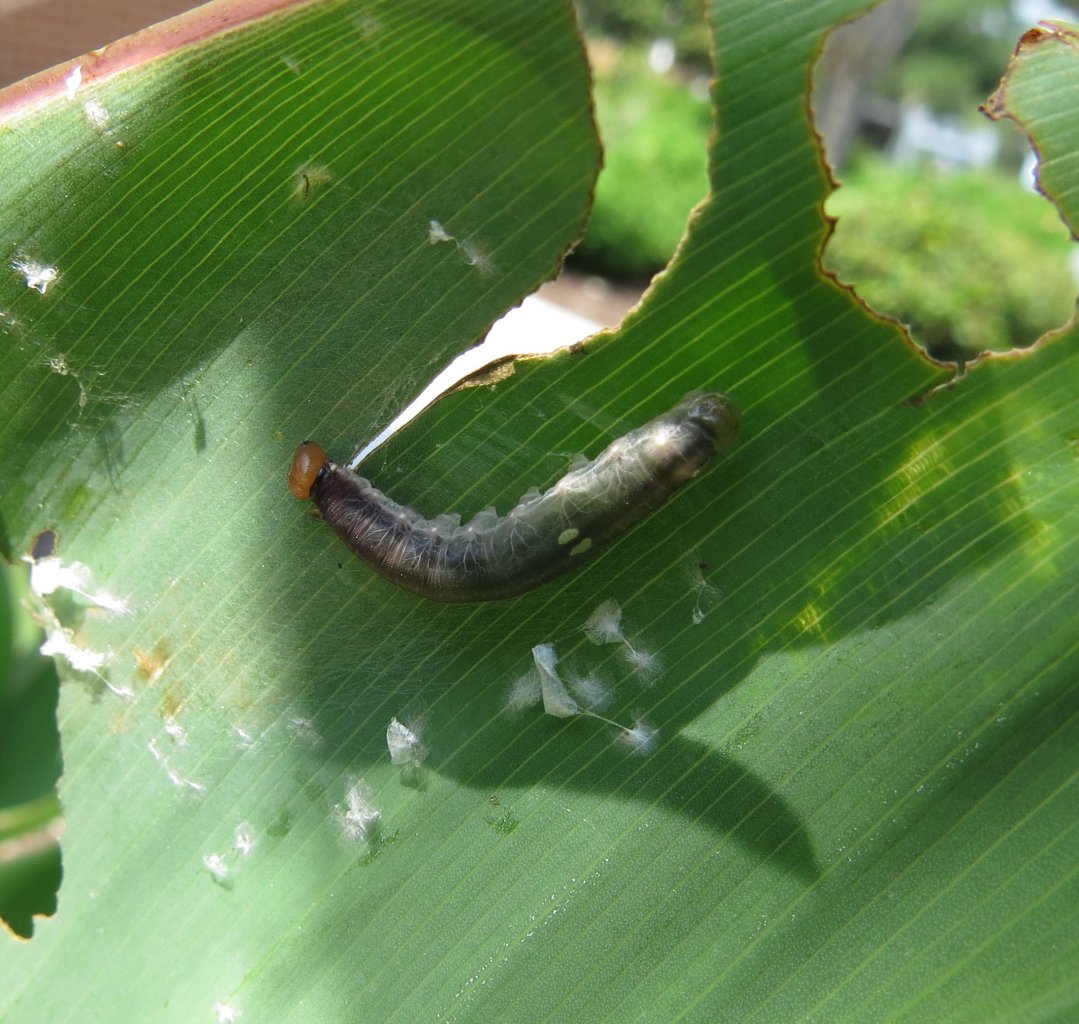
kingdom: Animalia
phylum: Arthropoda
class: Insecta
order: Lepidoptera
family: Hesperiidae
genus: Calpodes
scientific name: Calpodes ethlius
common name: Brazilian Skipper
